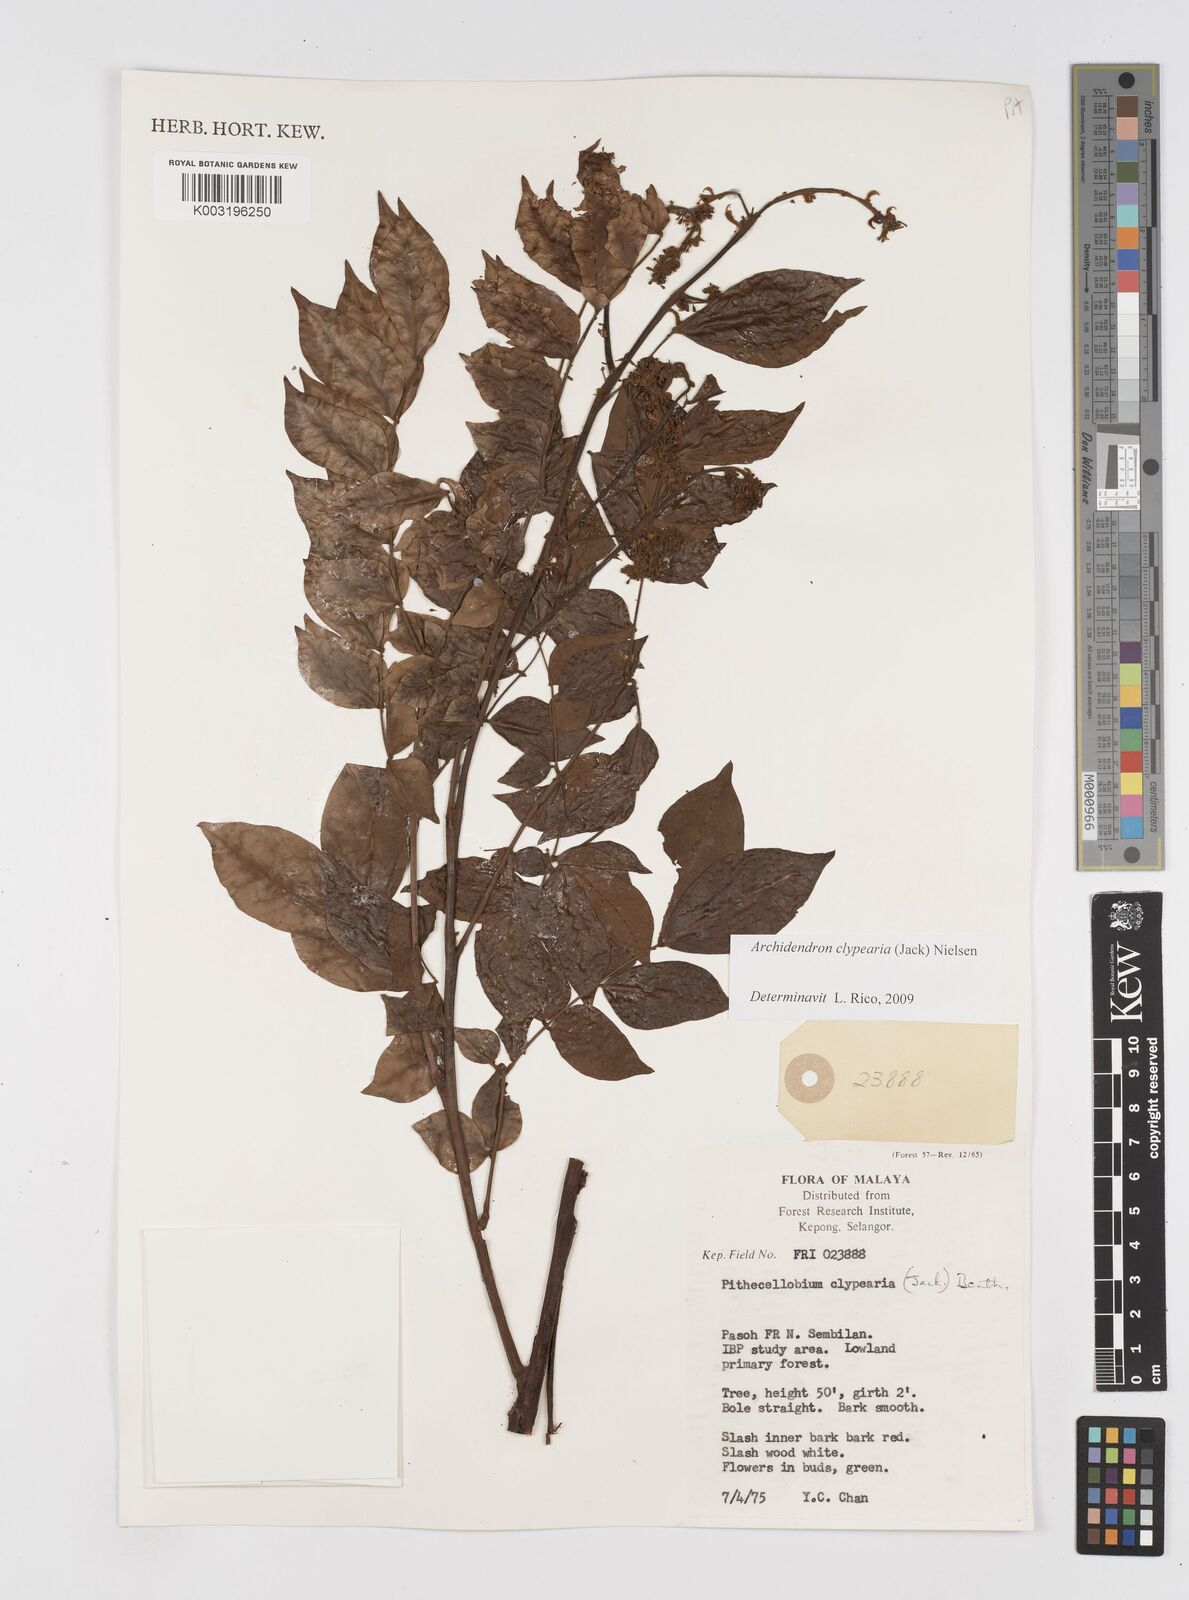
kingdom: Plantae
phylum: Tracheophyta
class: Magnoliopsida
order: Fabales
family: Fabaceae
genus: Archidendron
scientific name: Archidendron clypearia
